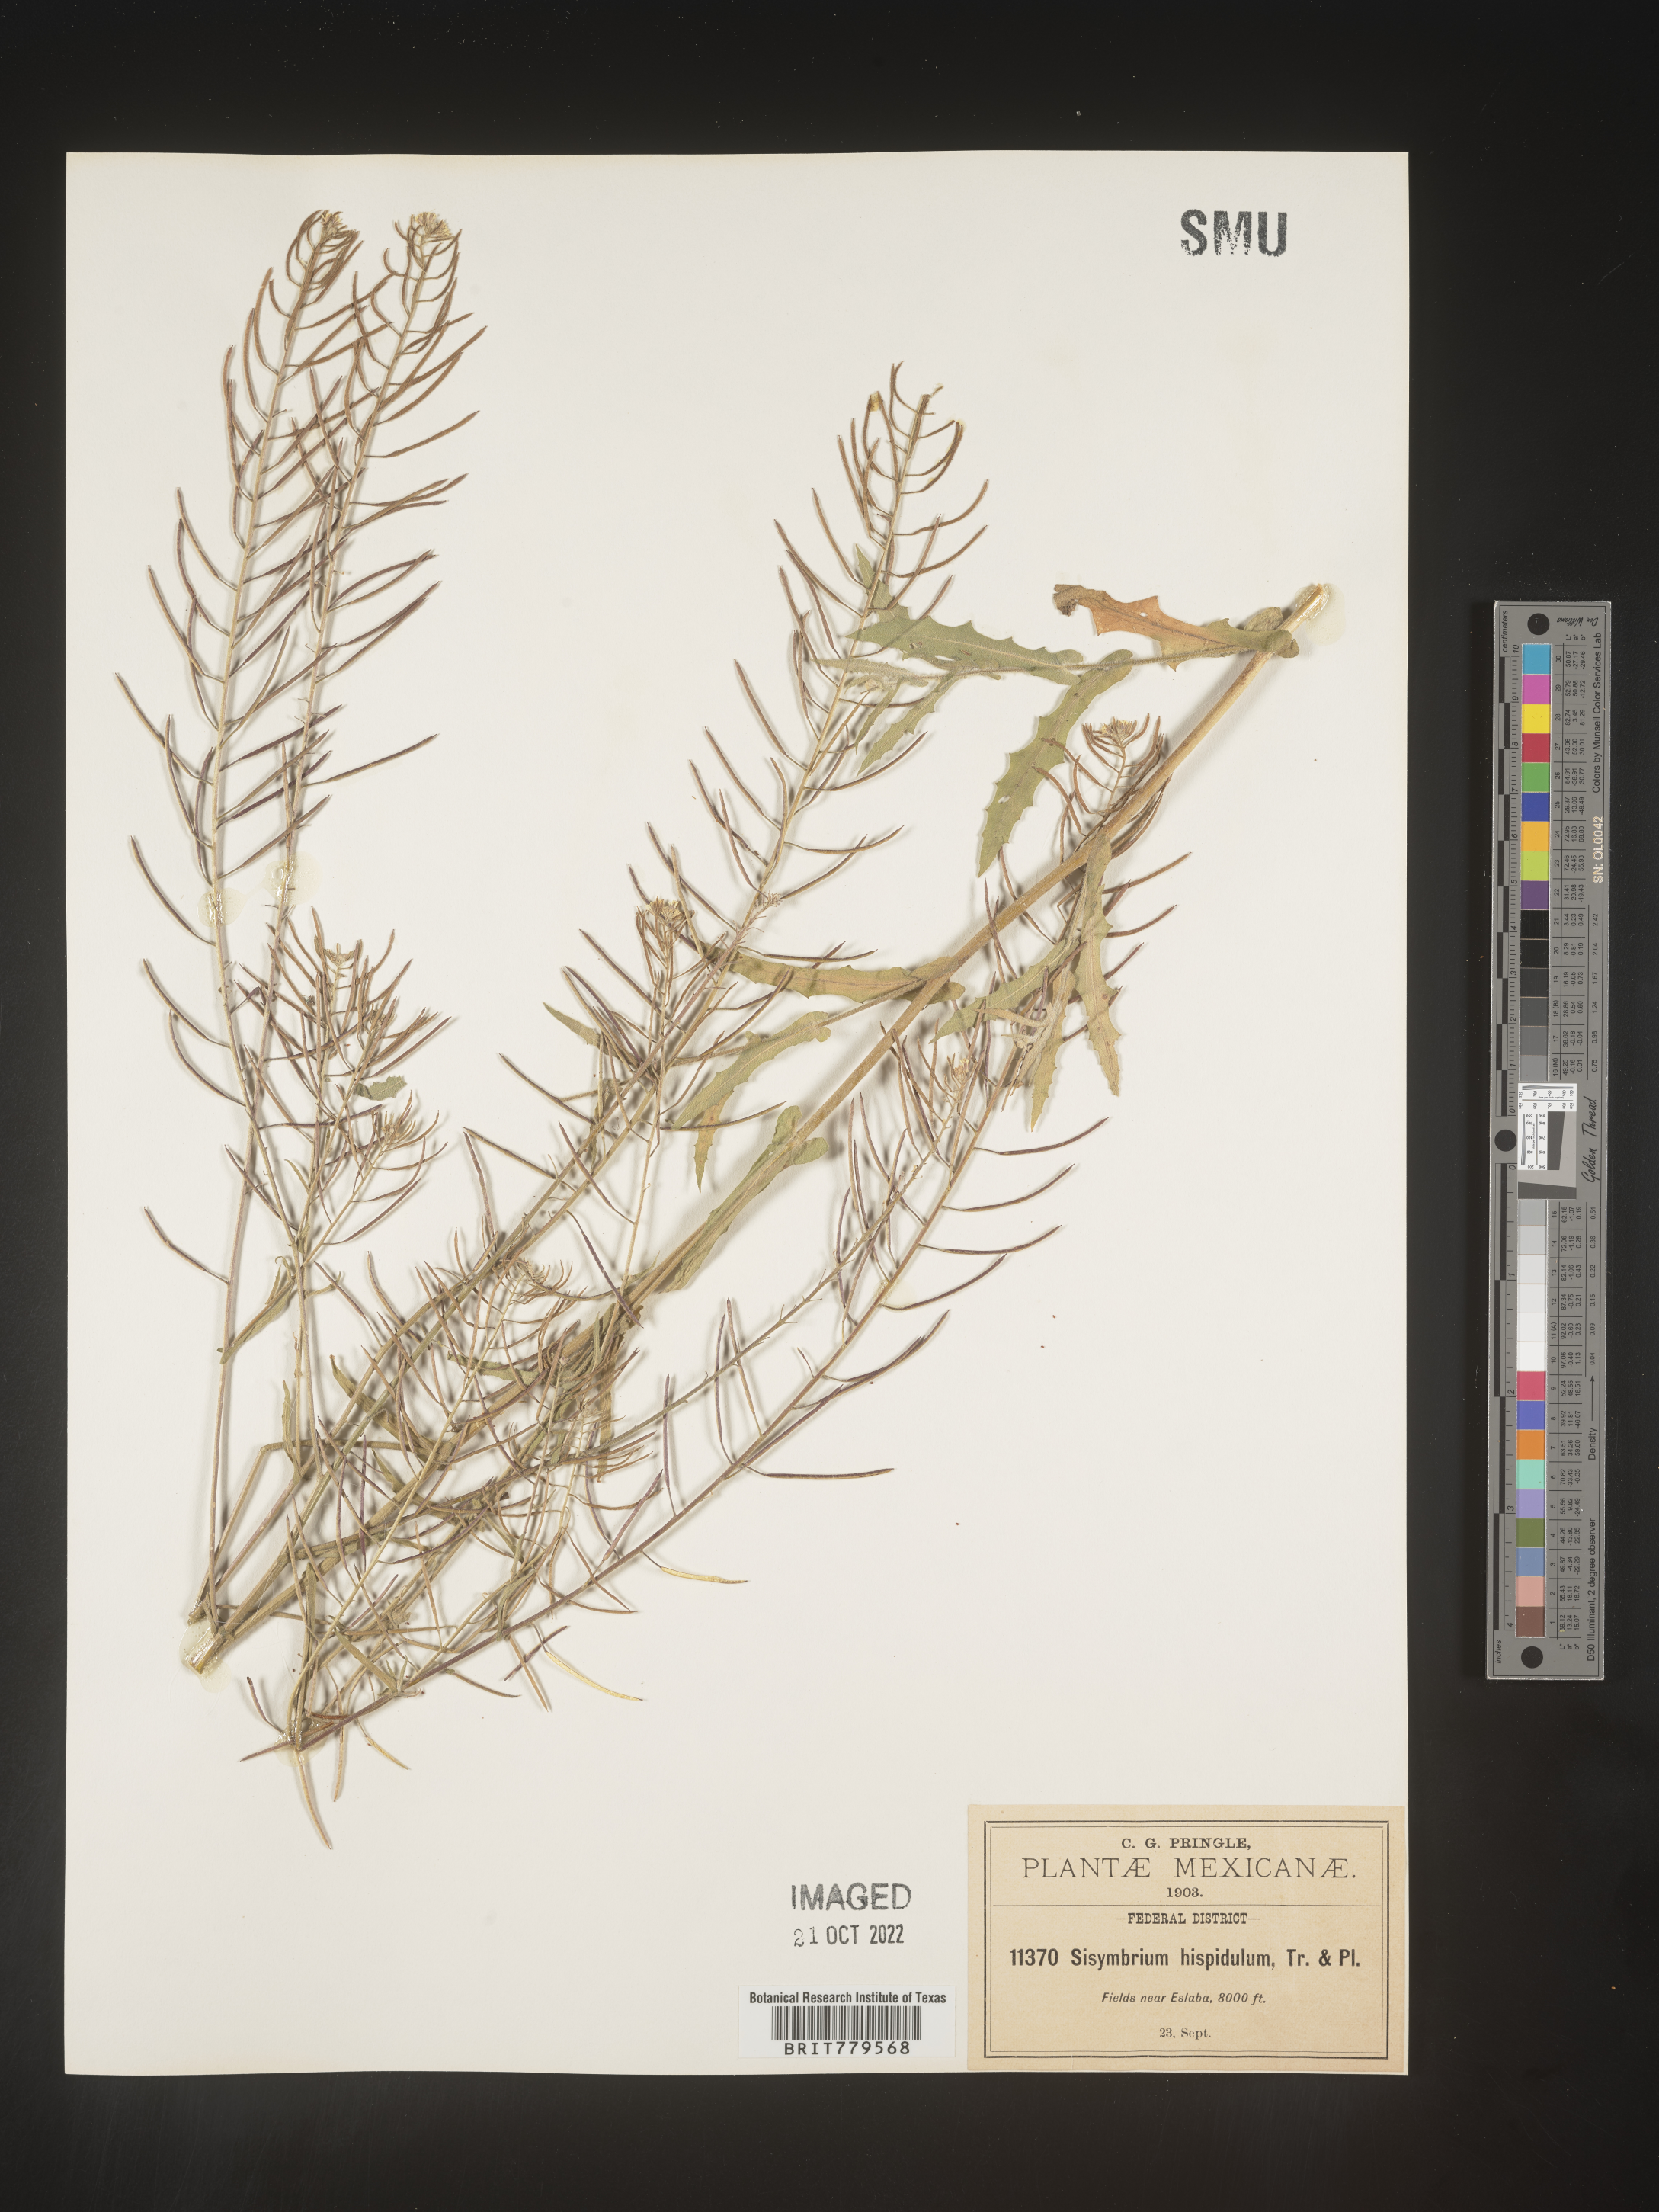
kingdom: Plantae
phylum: Tracheophyta
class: Magnoliopsida
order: Brassicales
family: Brassicaceae
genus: Sisymbrium
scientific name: Sisymbrium
